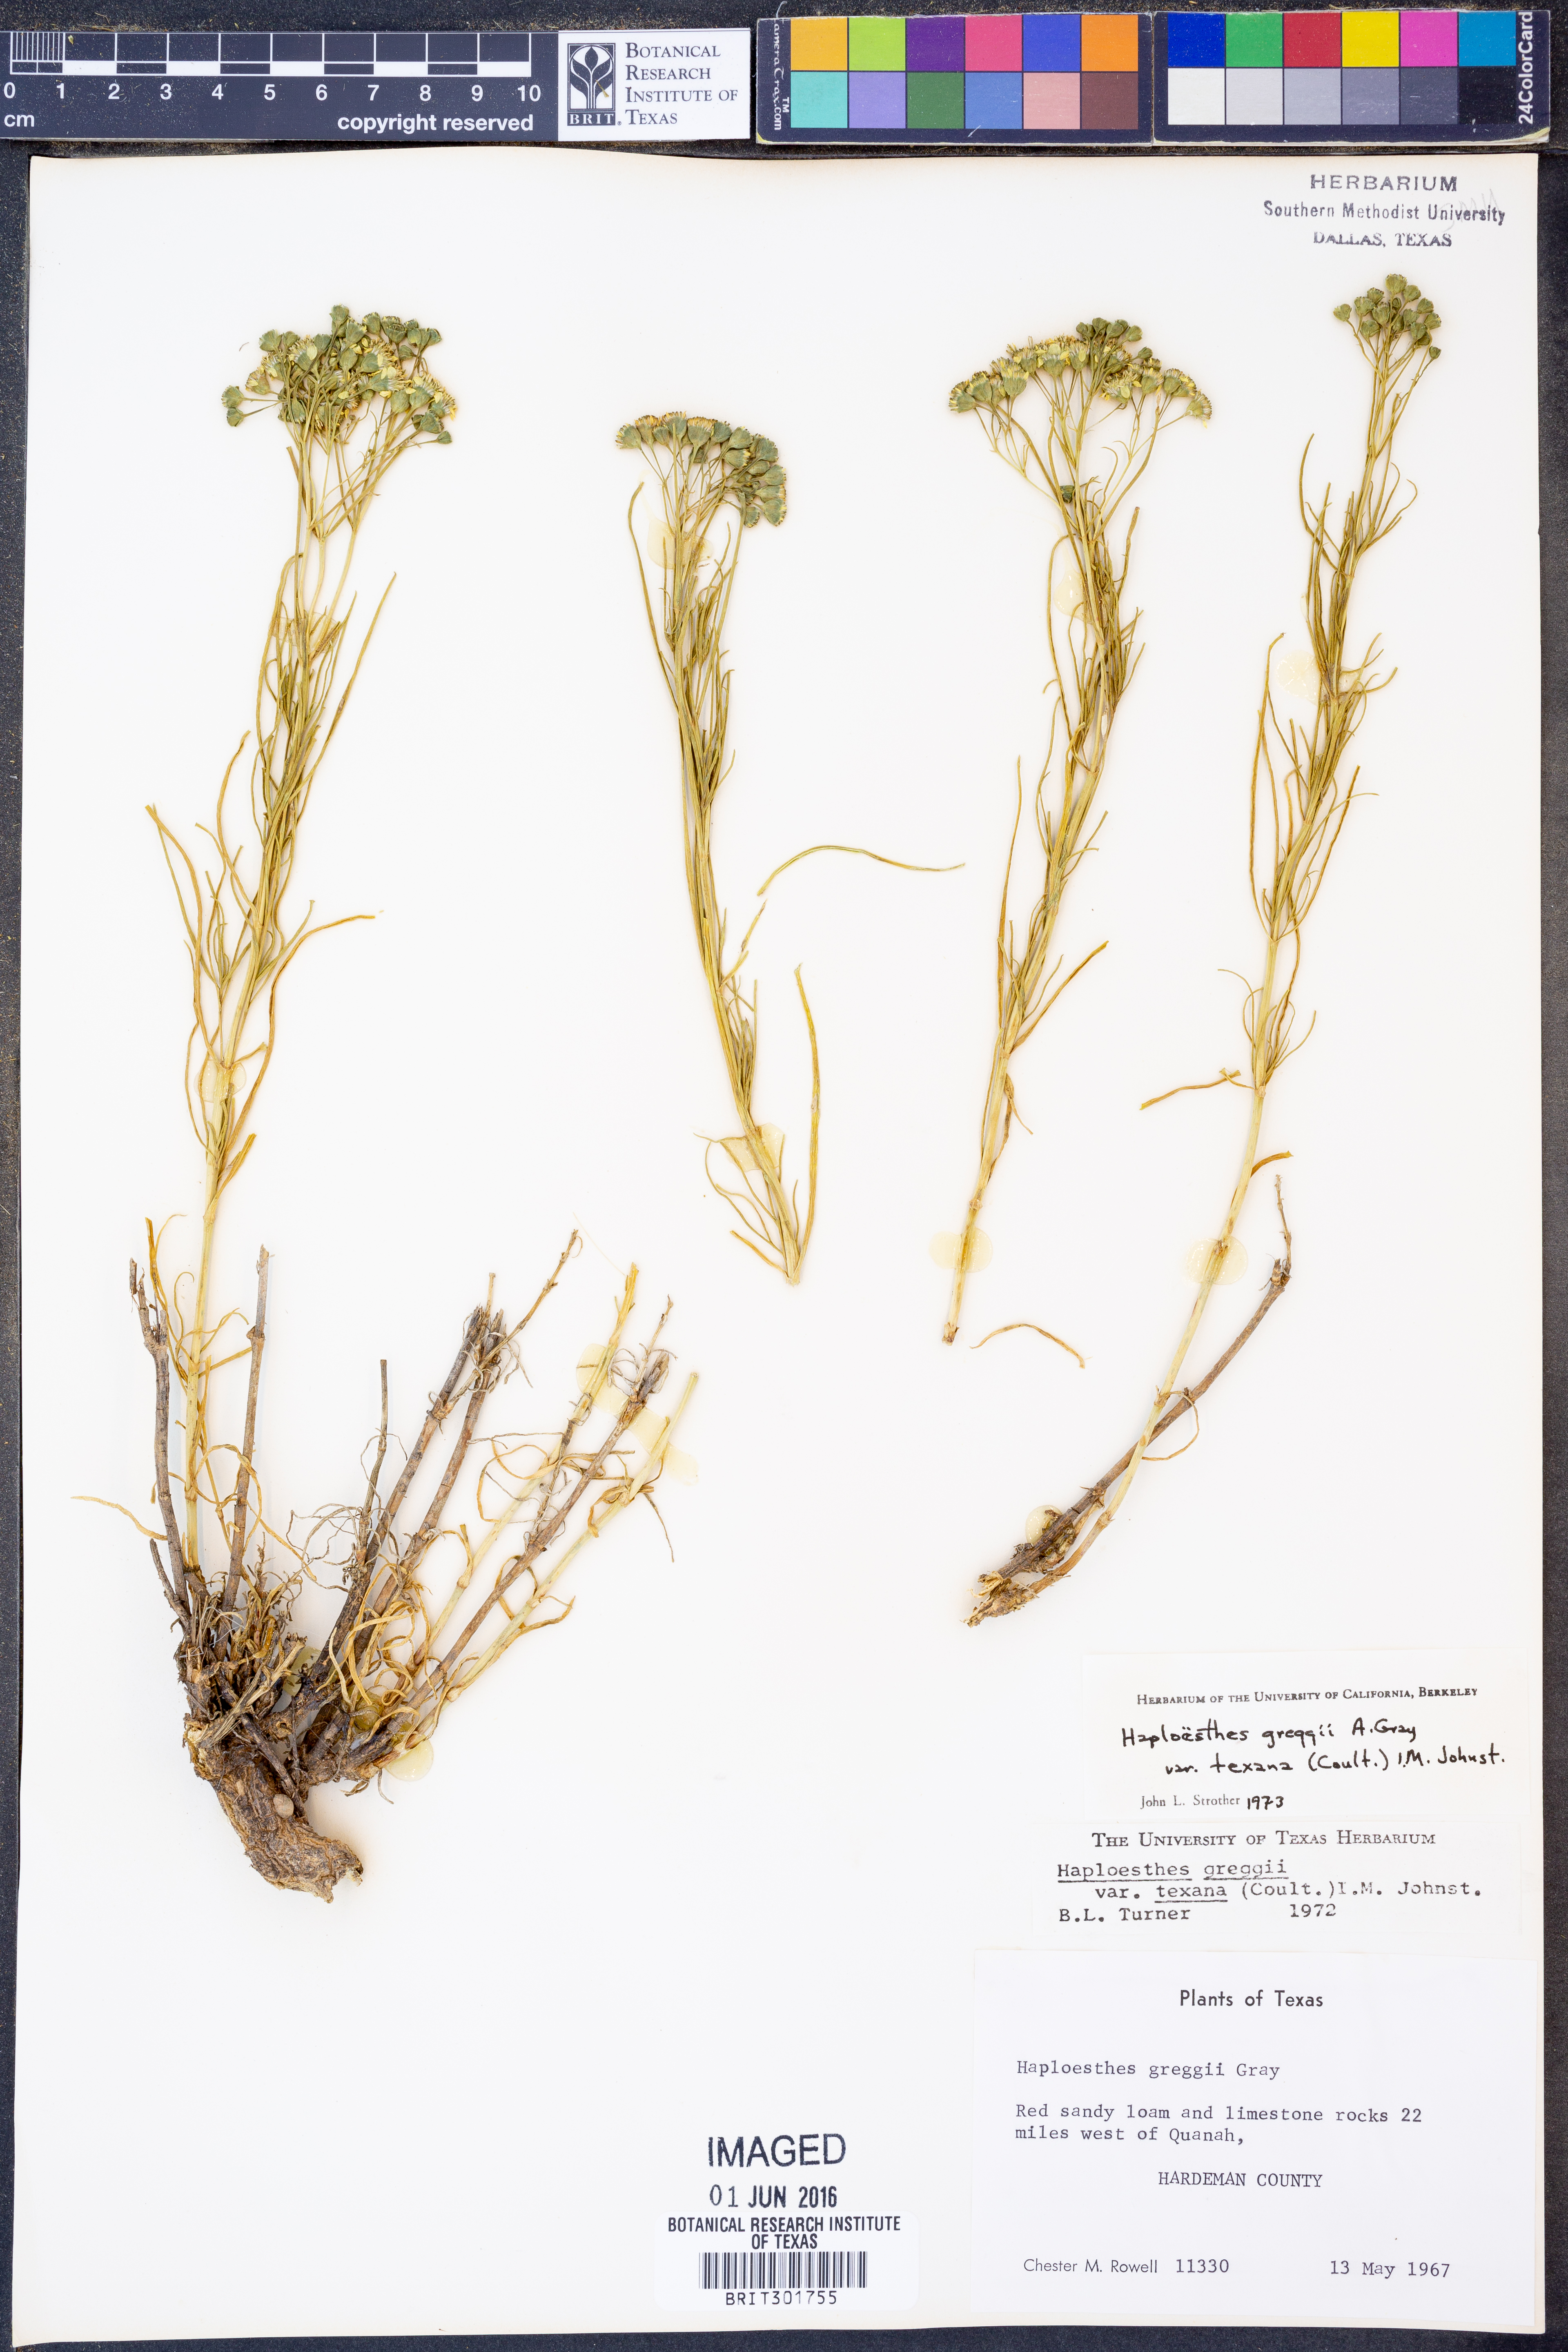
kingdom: Plantae
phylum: Tracheophyta
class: Magnoliopsida
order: Asterales
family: Asteraceae
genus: Haploesthes
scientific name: Haploesthes greggii
